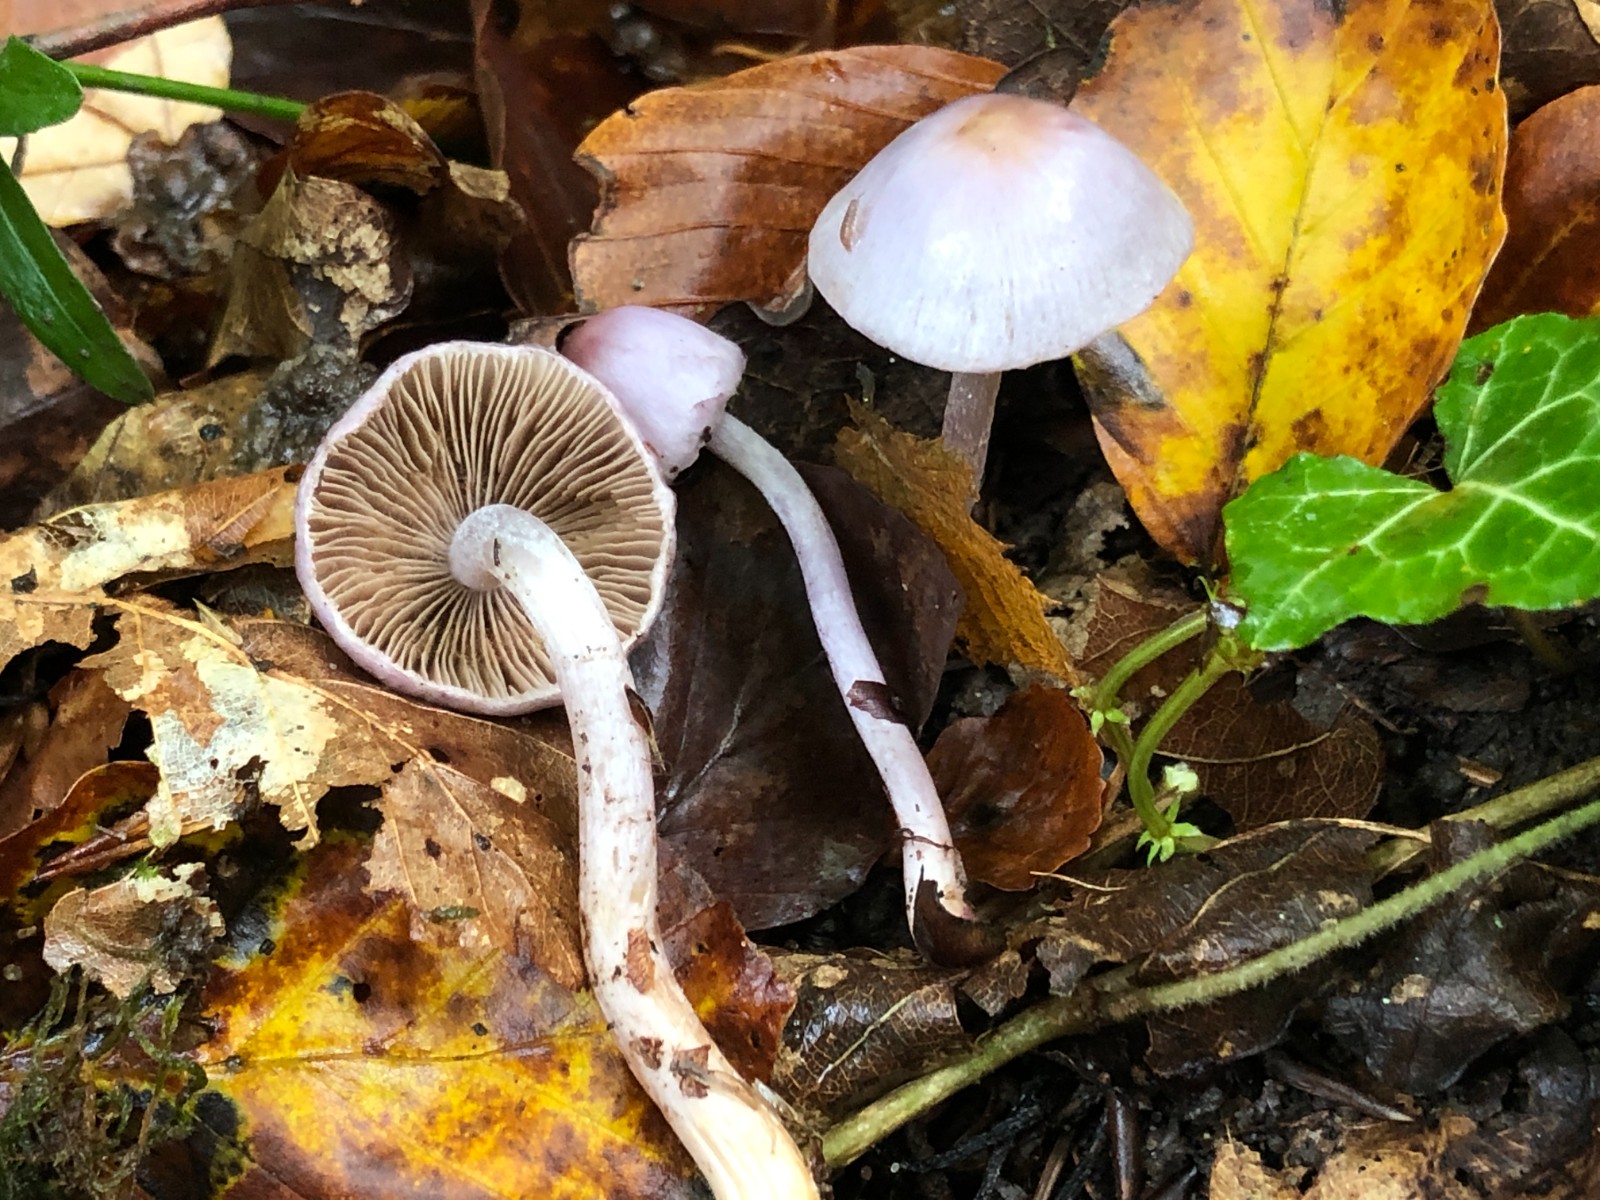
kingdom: Fungi
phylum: Basidiomycota
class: Agaricomycetes
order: Agaricales
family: Inocybaceae
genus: Inocybe
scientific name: Inocybe geophylla
